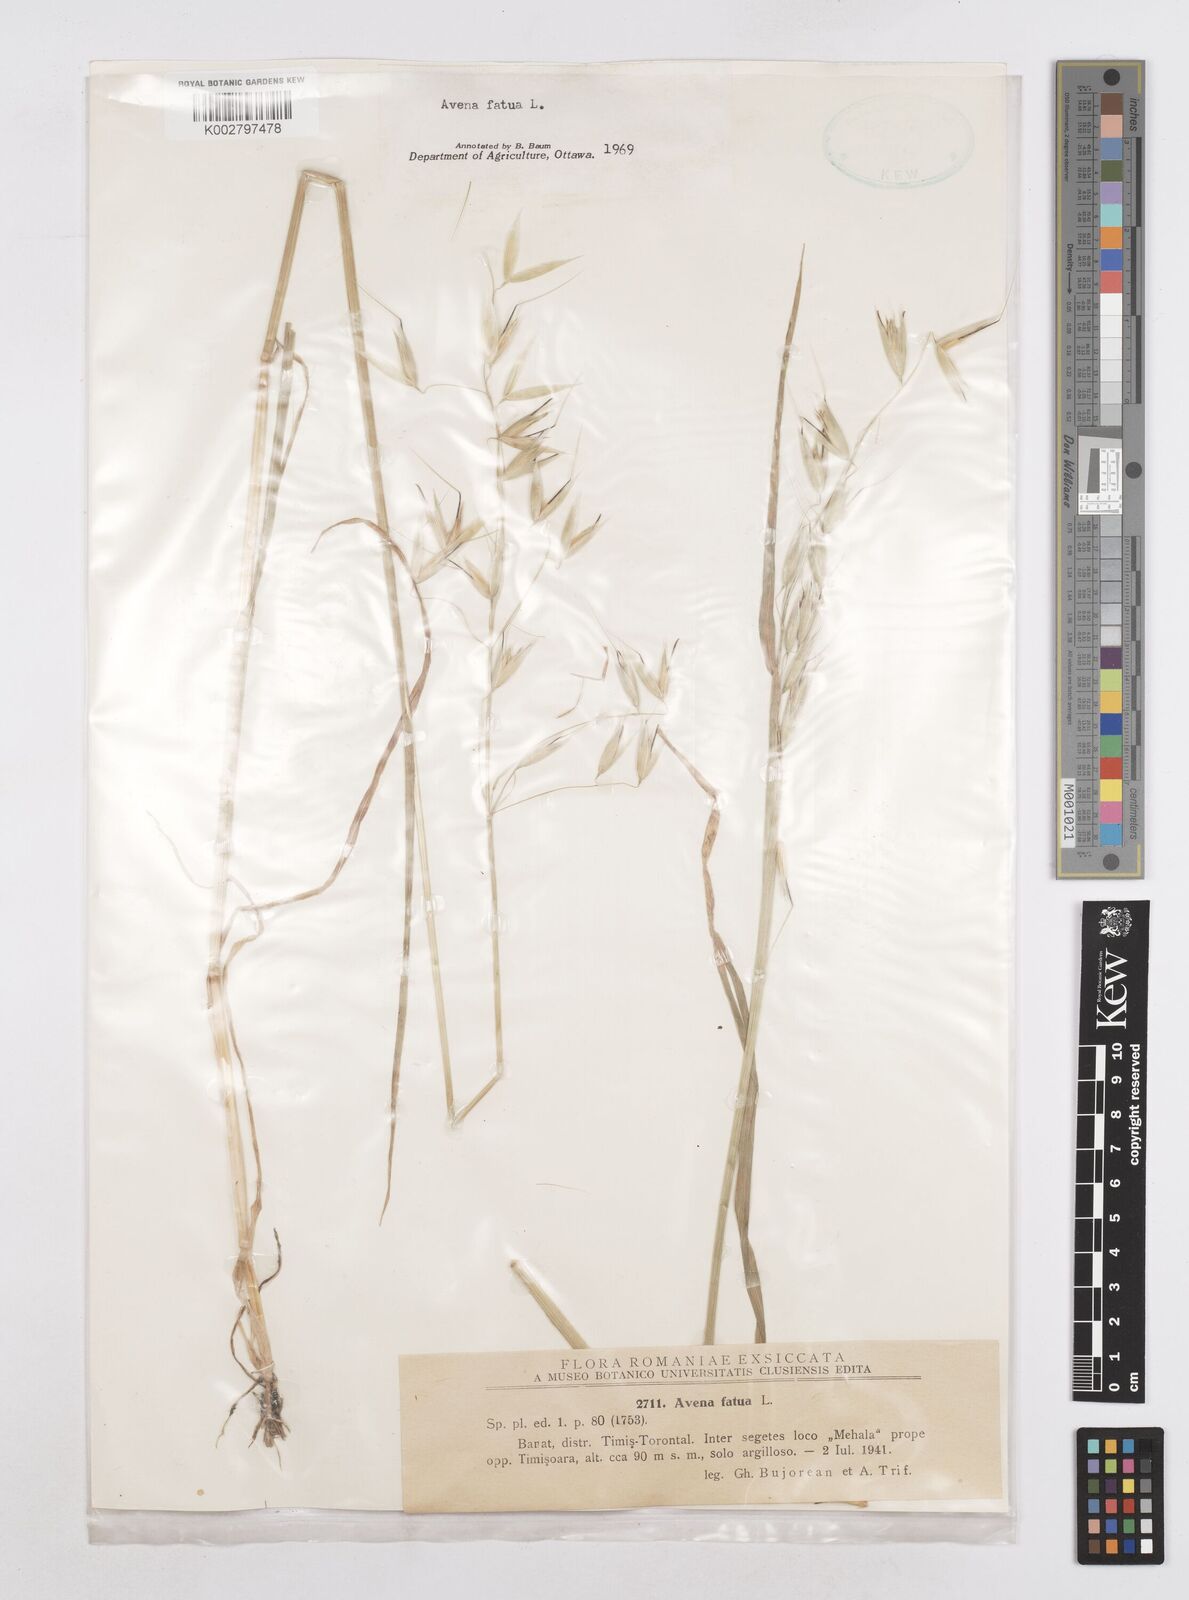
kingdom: Plantae
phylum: Tracheophyta
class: Liliopsida
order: Poales
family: Poaceae
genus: Avena
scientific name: Avena fatua
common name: Wild oat
